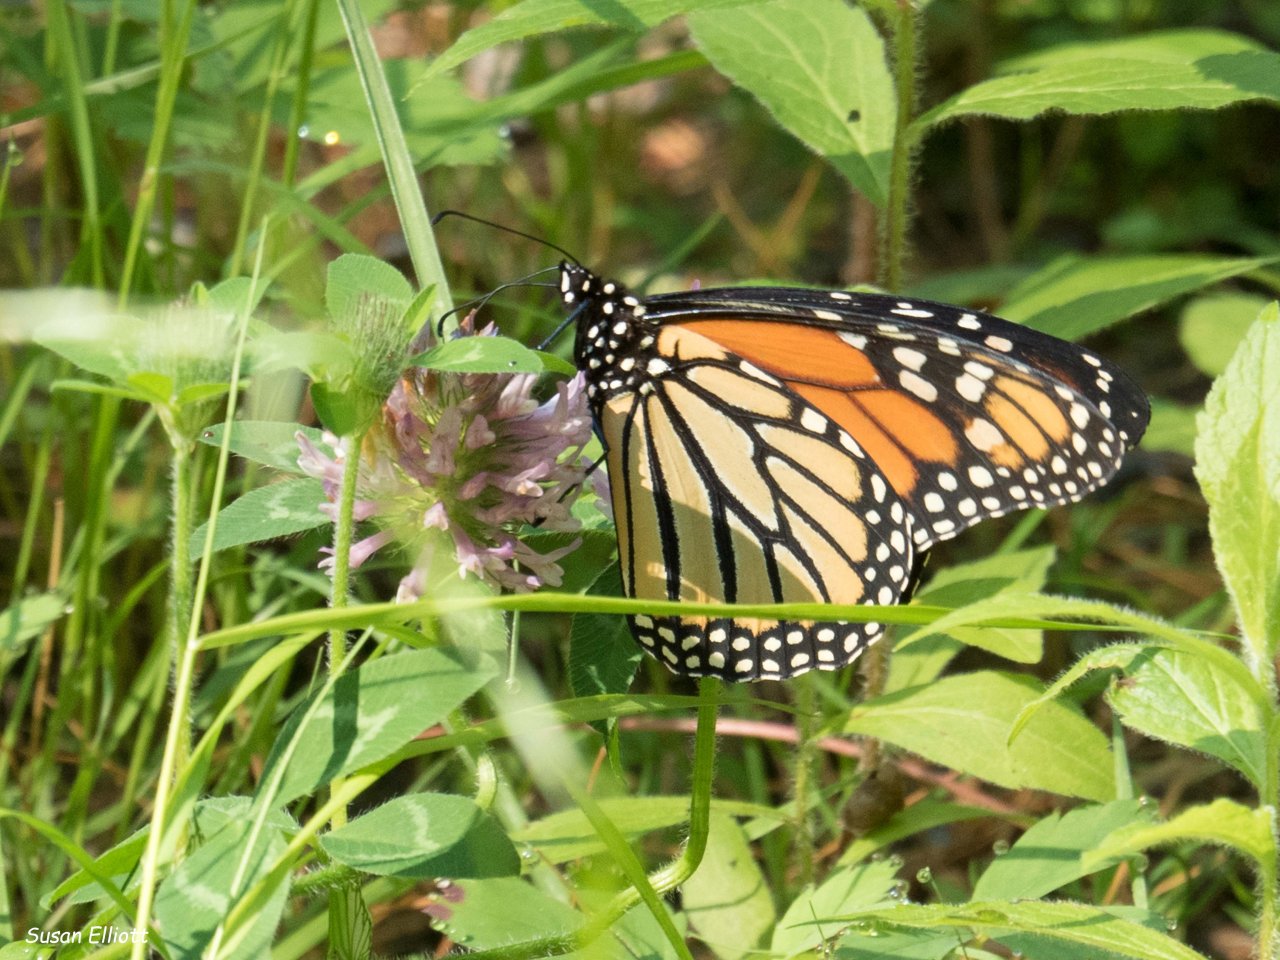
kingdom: Animalia
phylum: Arthropoda
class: Insecta
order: Lepidoptera
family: Nymphalidae
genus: Danaus
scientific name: Danaus plexippus
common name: Monarch
